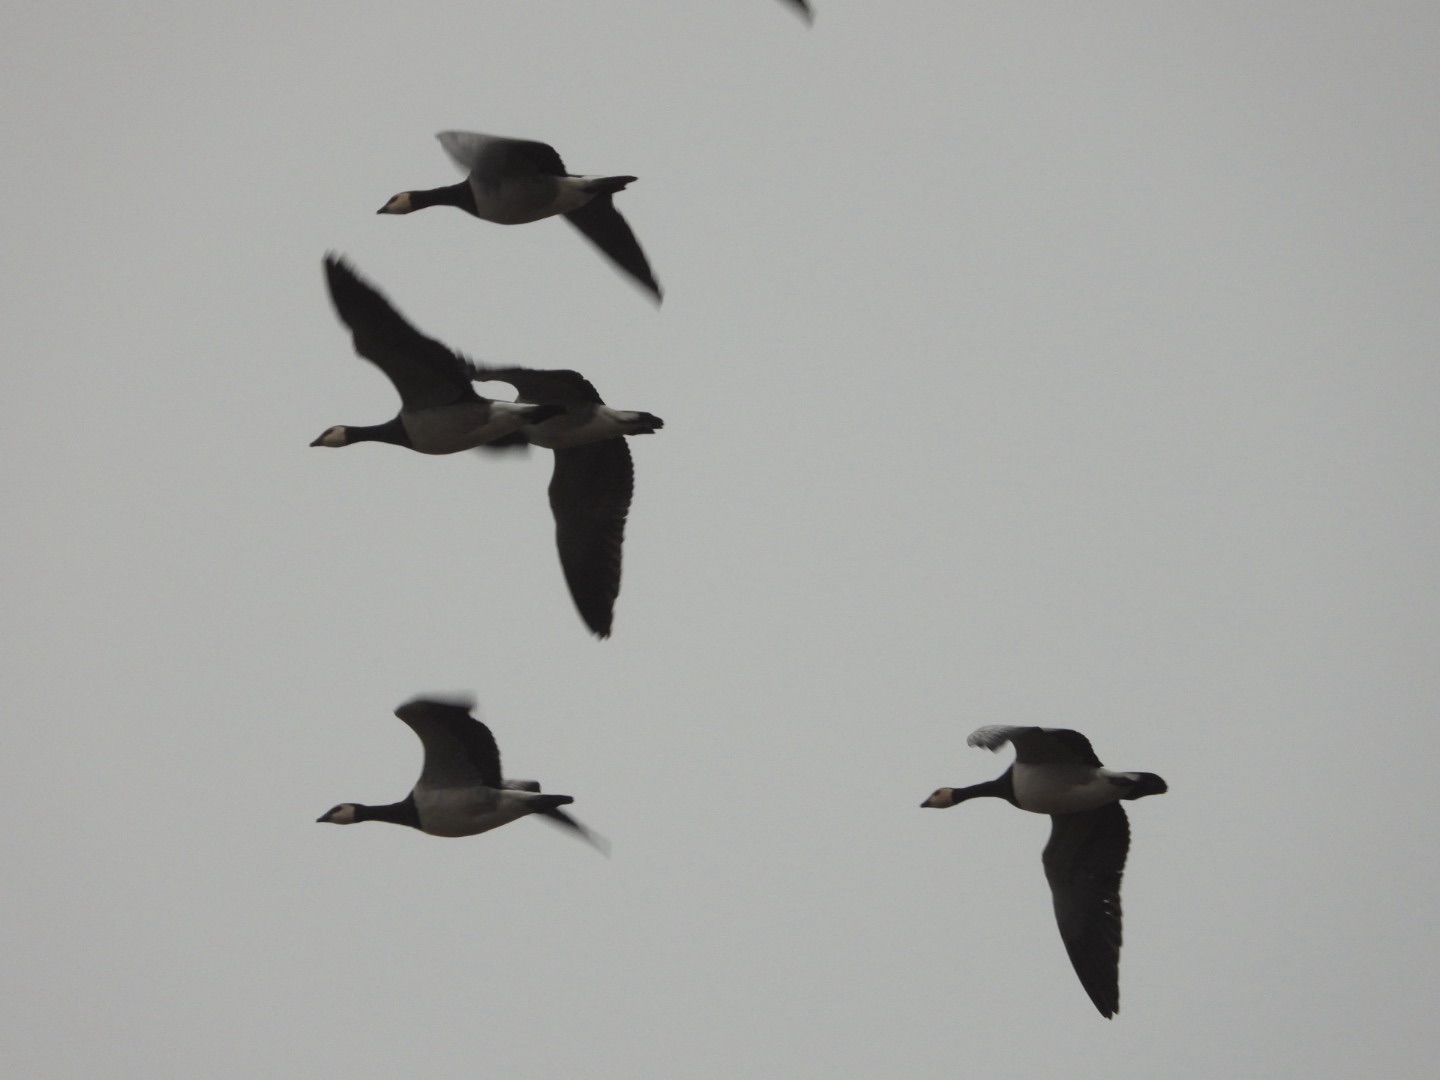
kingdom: Animalia
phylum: Chordata
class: Aves
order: Anseriformes
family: Anatidae
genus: Branta
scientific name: Branta leucopsis
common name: Bramgås
